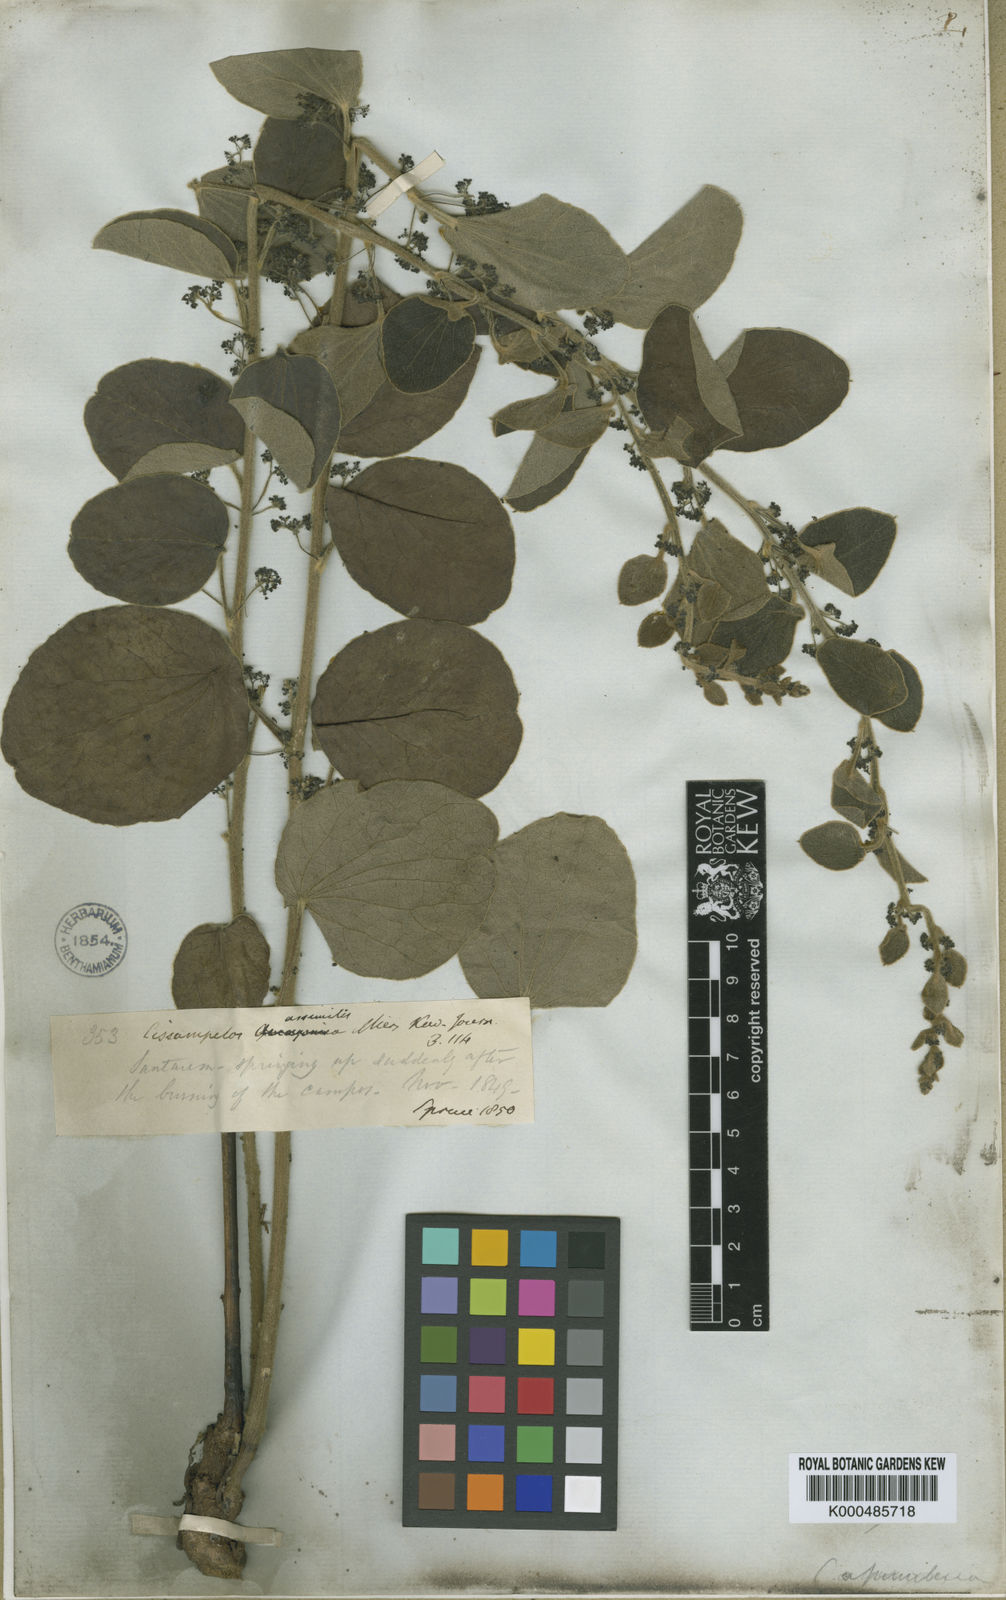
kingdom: Plantae
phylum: Tracheophyta
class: Magnoliopsida
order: Ranunculales
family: Menispermaceae
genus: Cissampelos
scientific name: Cissampelos ovalifolia
